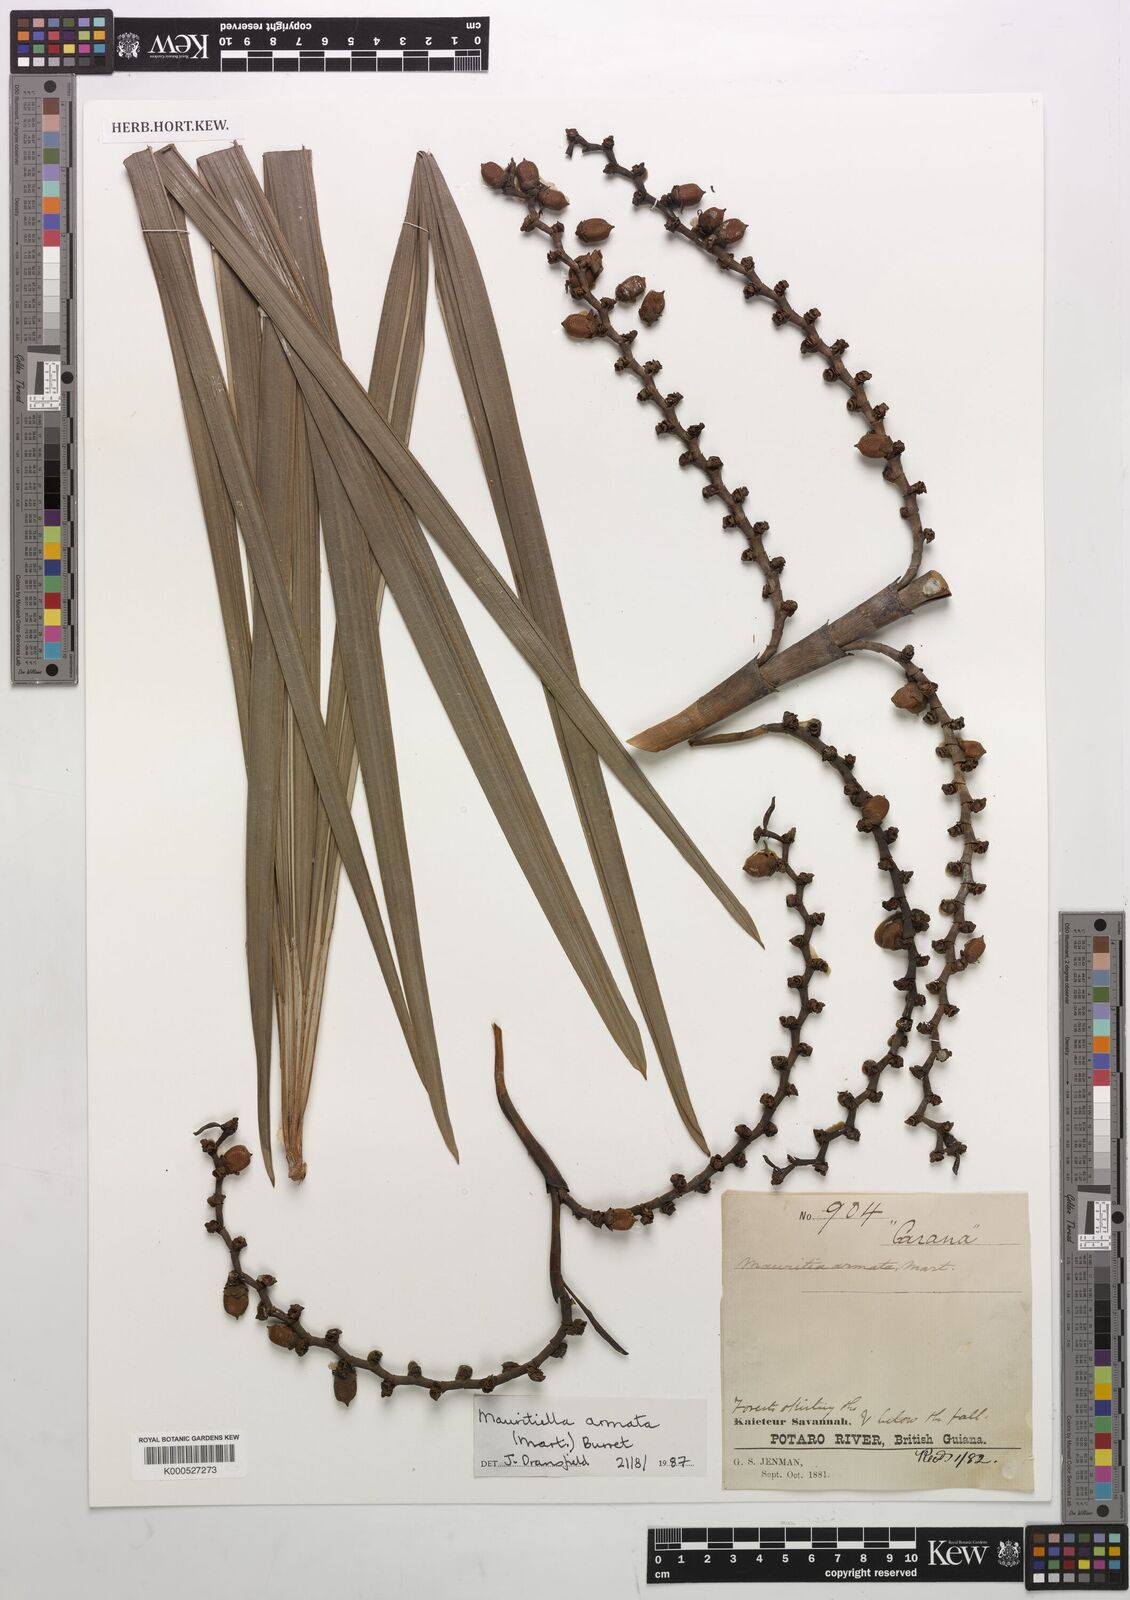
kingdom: Plantae
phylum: Tracheophyta
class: Liliopsida
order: Arecales
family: Arecaceae
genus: Mauritiella
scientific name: Mauritiella armata
